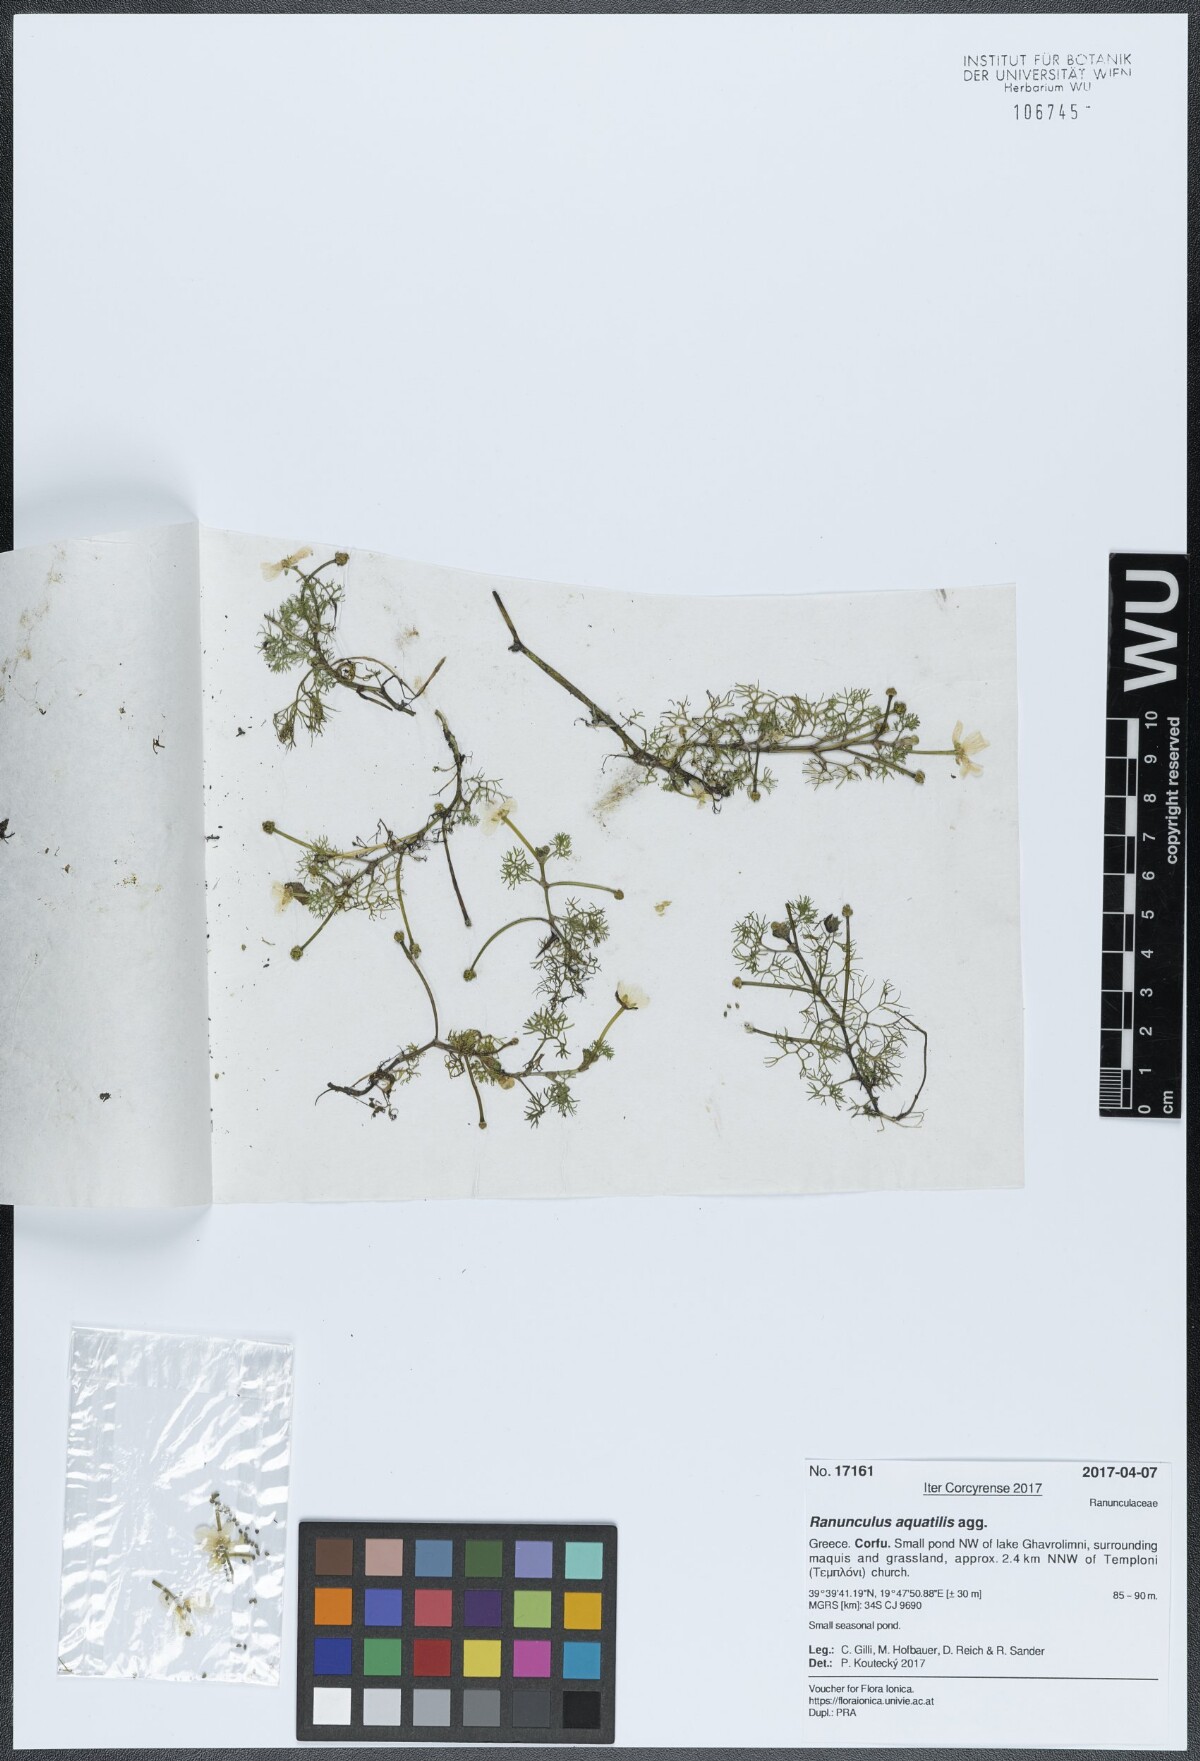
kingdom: Plantae
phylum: Tracheophyta
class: Magnoliopsida
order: Ranunculales
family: Ranunculaceae
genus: Ranunculus
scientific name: Ranunculus aquatilis
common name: Common water-crowfoot
